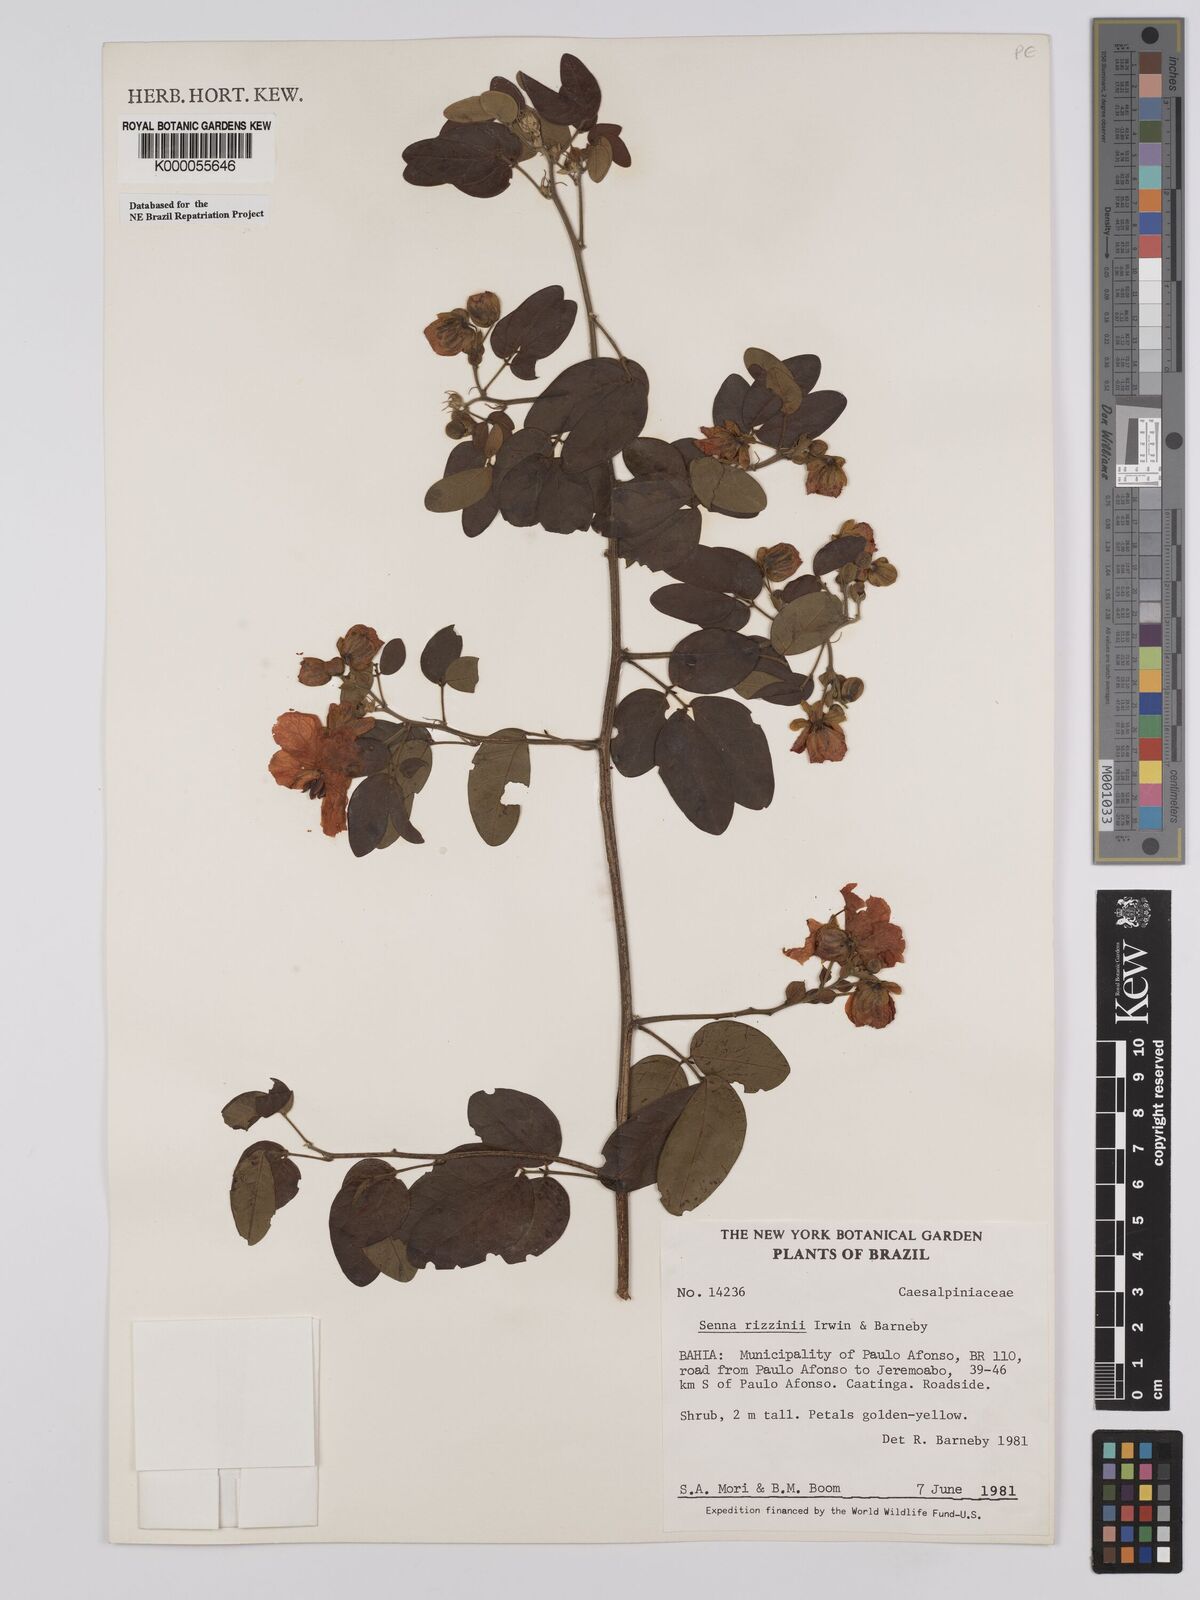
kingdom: Plantae
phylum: Tracheophyta
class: Magnoliopsida
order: Fabales
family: Fabaceae
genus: Senna
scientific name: Senna rizzinii
